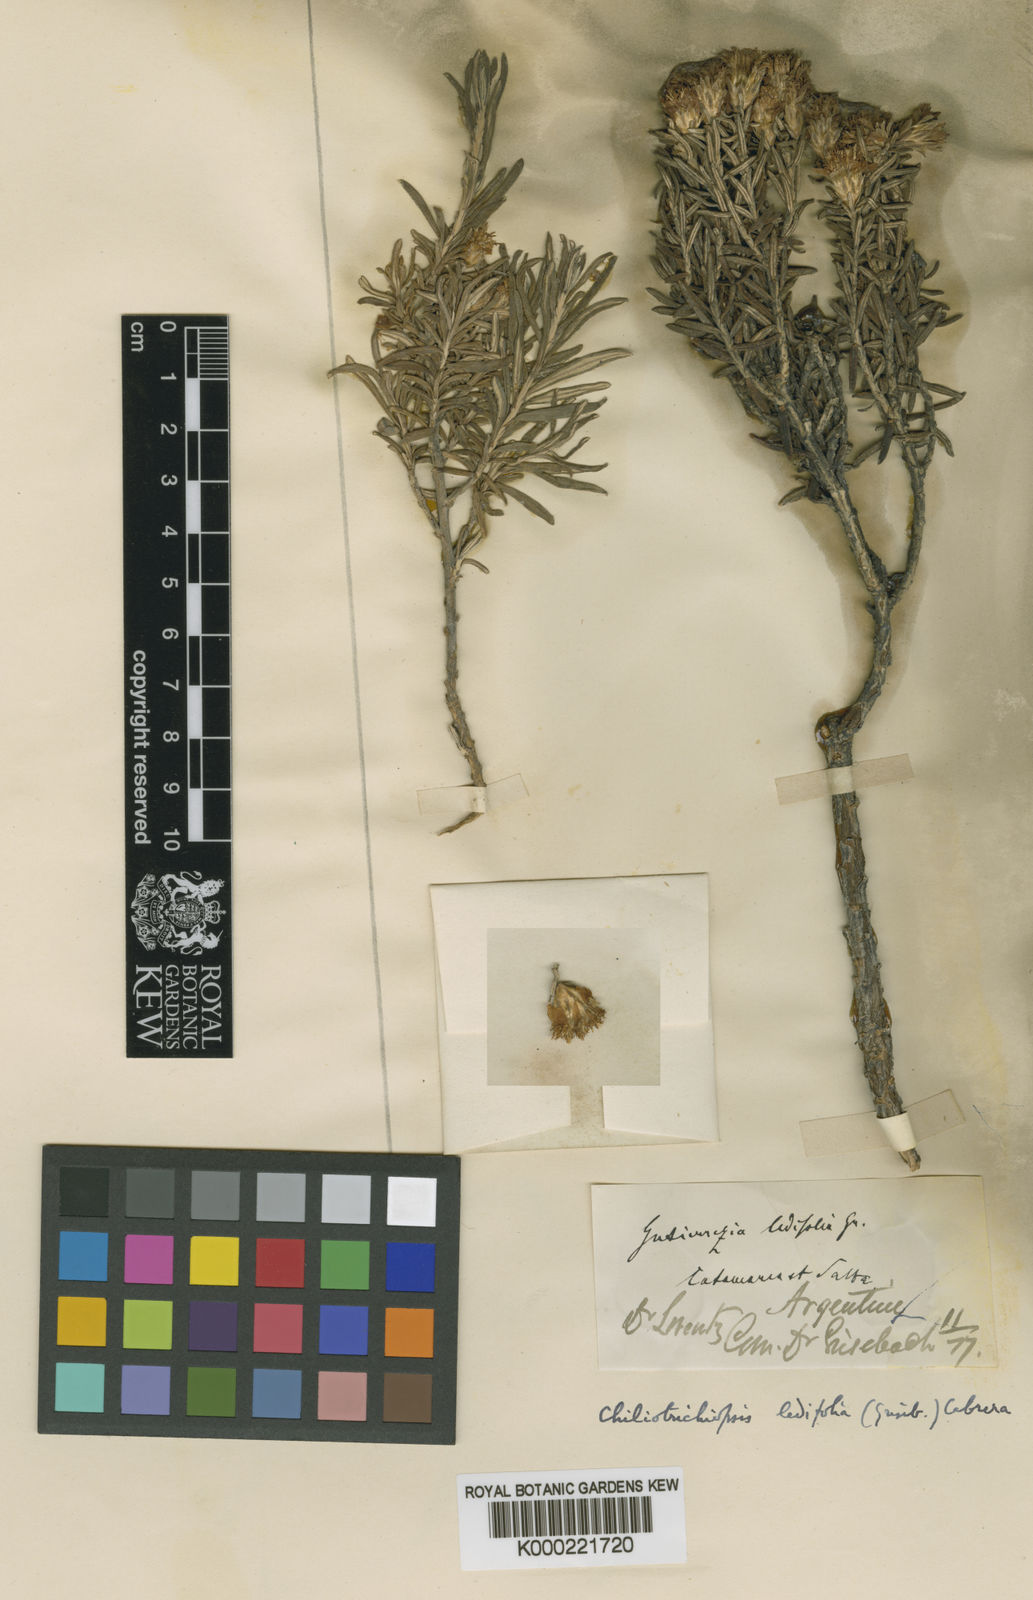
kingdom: Plantae
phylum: Tracheophyta
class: Magnoliopsida
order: Asterales
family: Asteraceae
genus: Chiliotrichiopsis
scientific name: Chiliotrichiopsis
